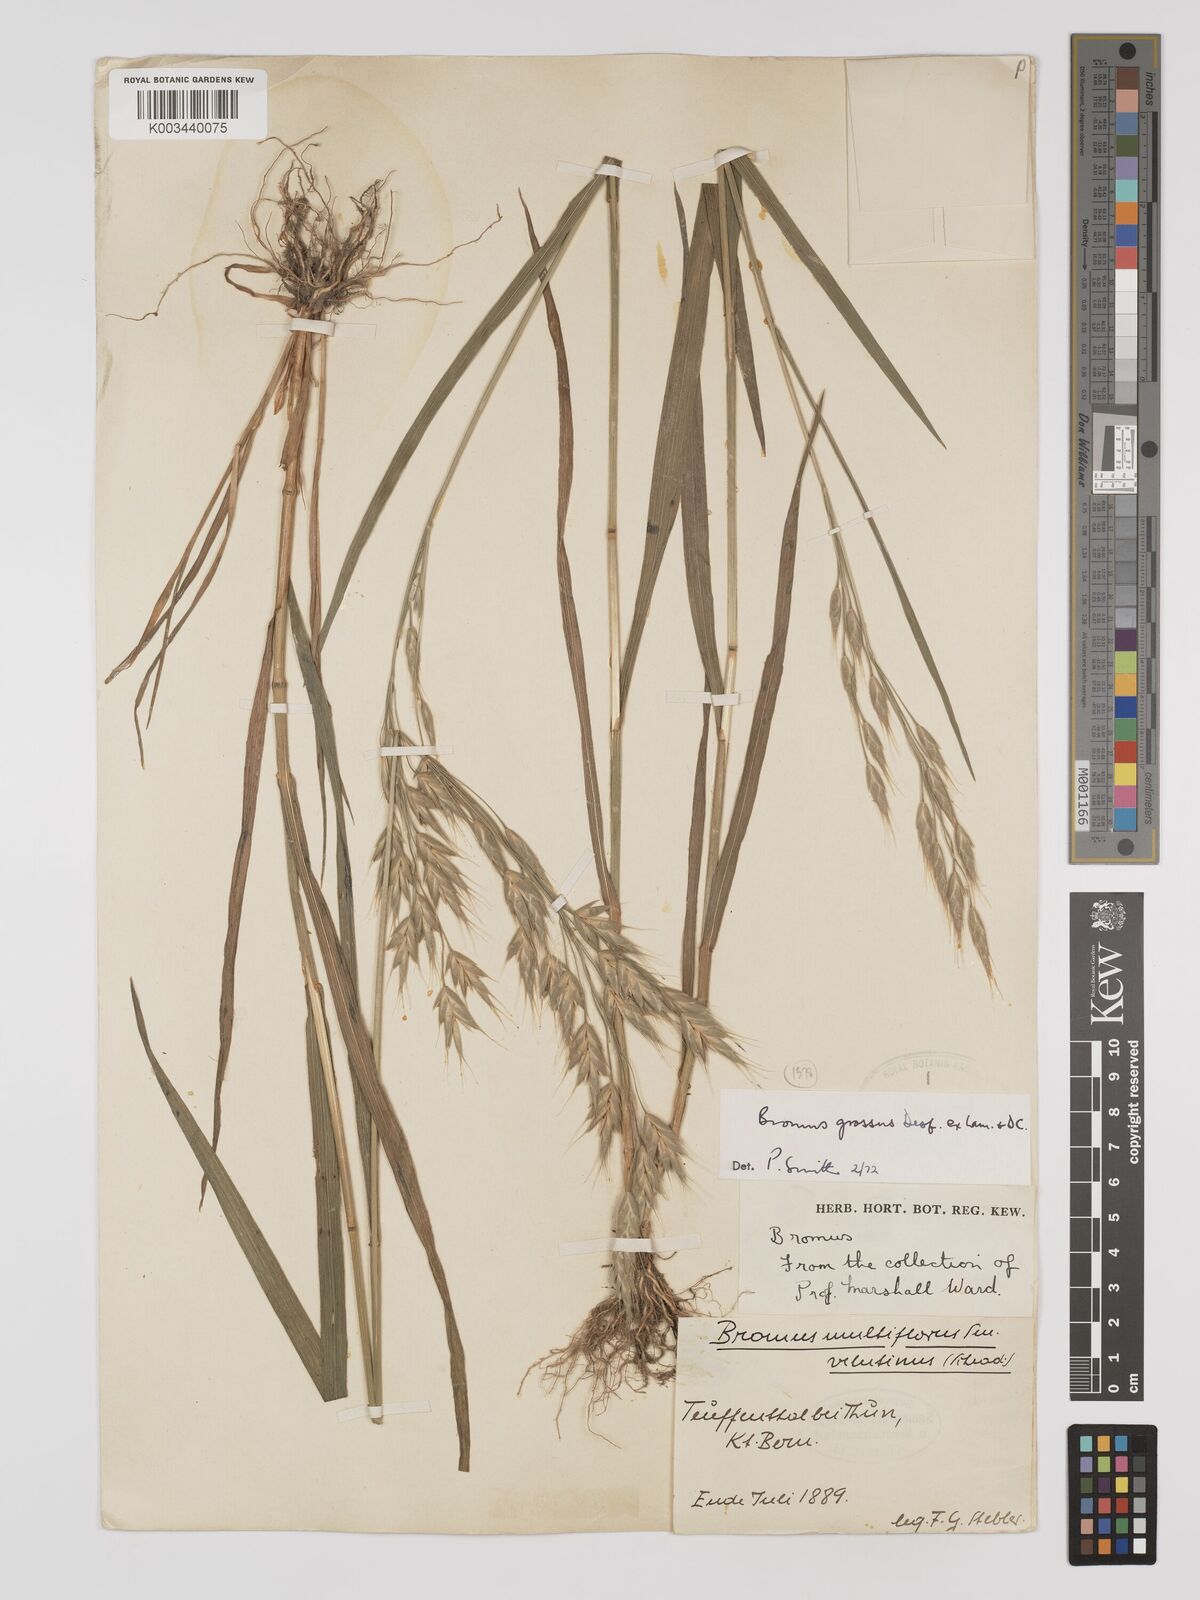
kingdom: Plantae
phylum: Tracheophyta
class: Liliopsida
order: Poales
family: Poaceae
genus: Bromus
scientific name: Bromus grossus
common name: Whiskered brome
